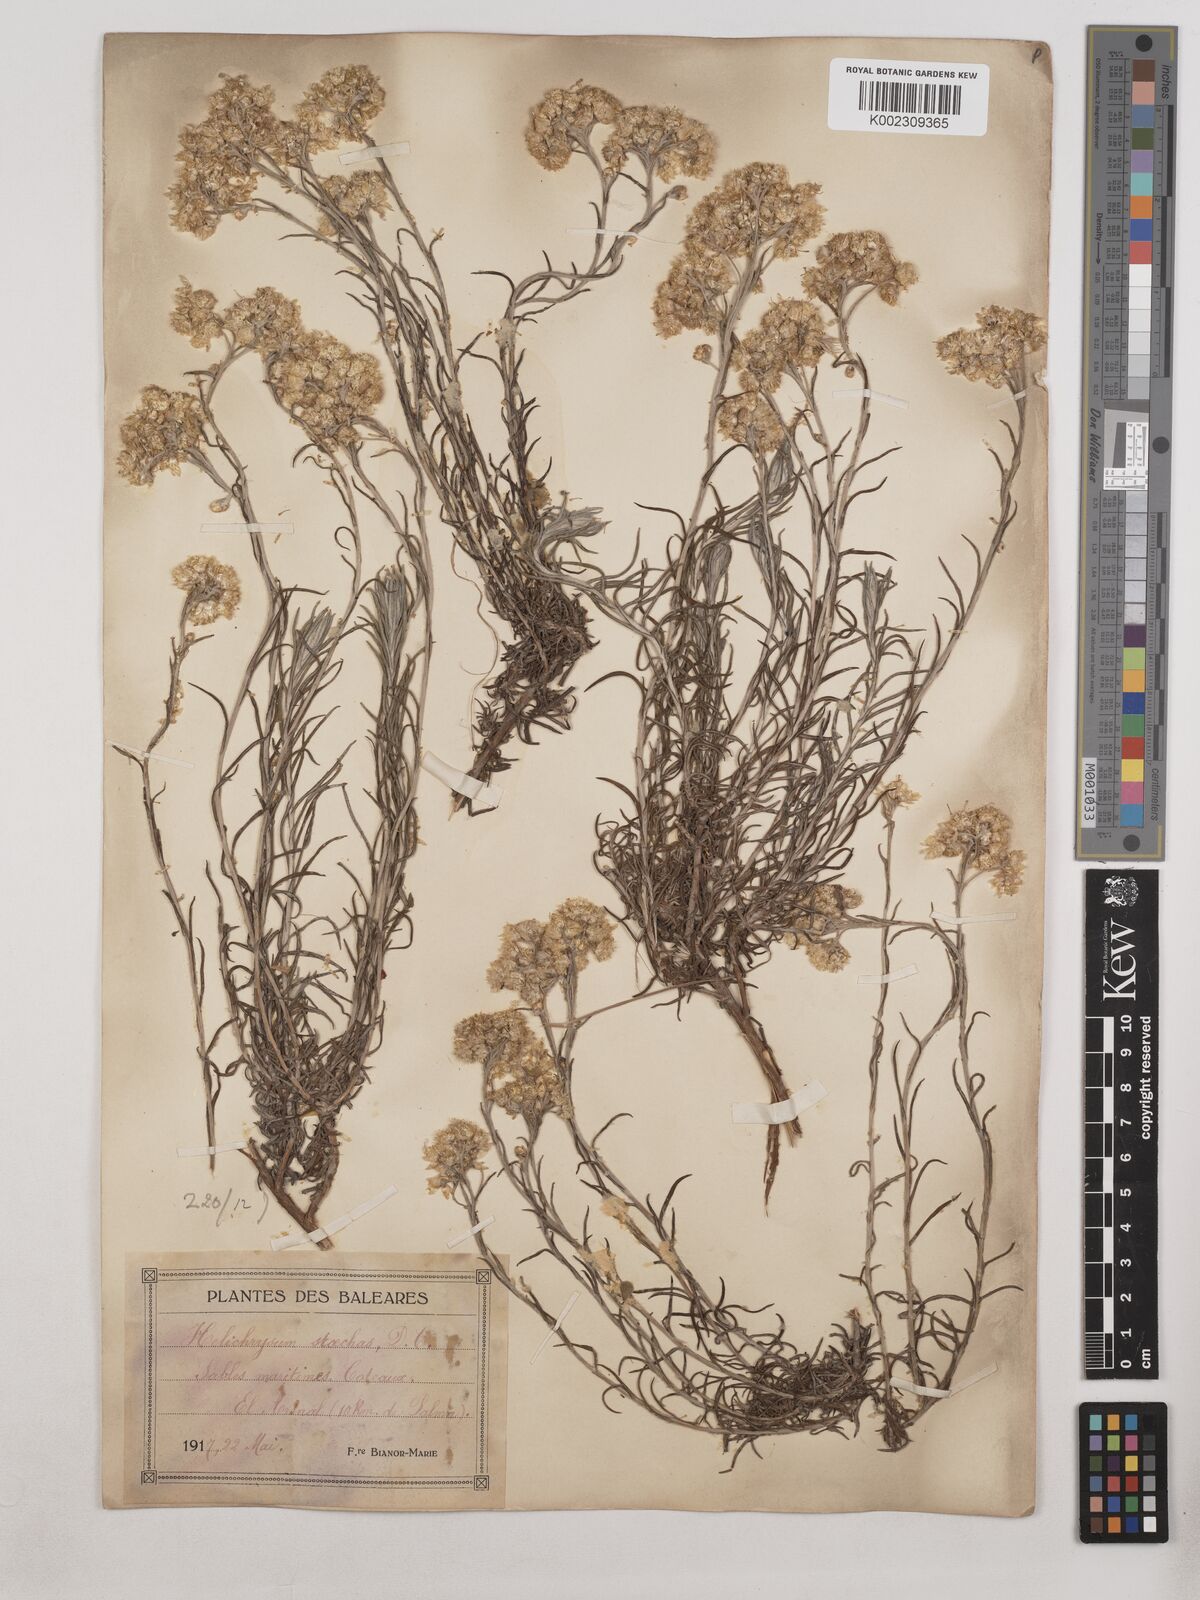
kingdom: Plantae
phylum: Tracheophyta
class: Magnoliopsida
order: Asterales
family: Asteraceae
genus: Helichrysum
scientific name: Helichrysum stoechas
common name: Goldilocks
